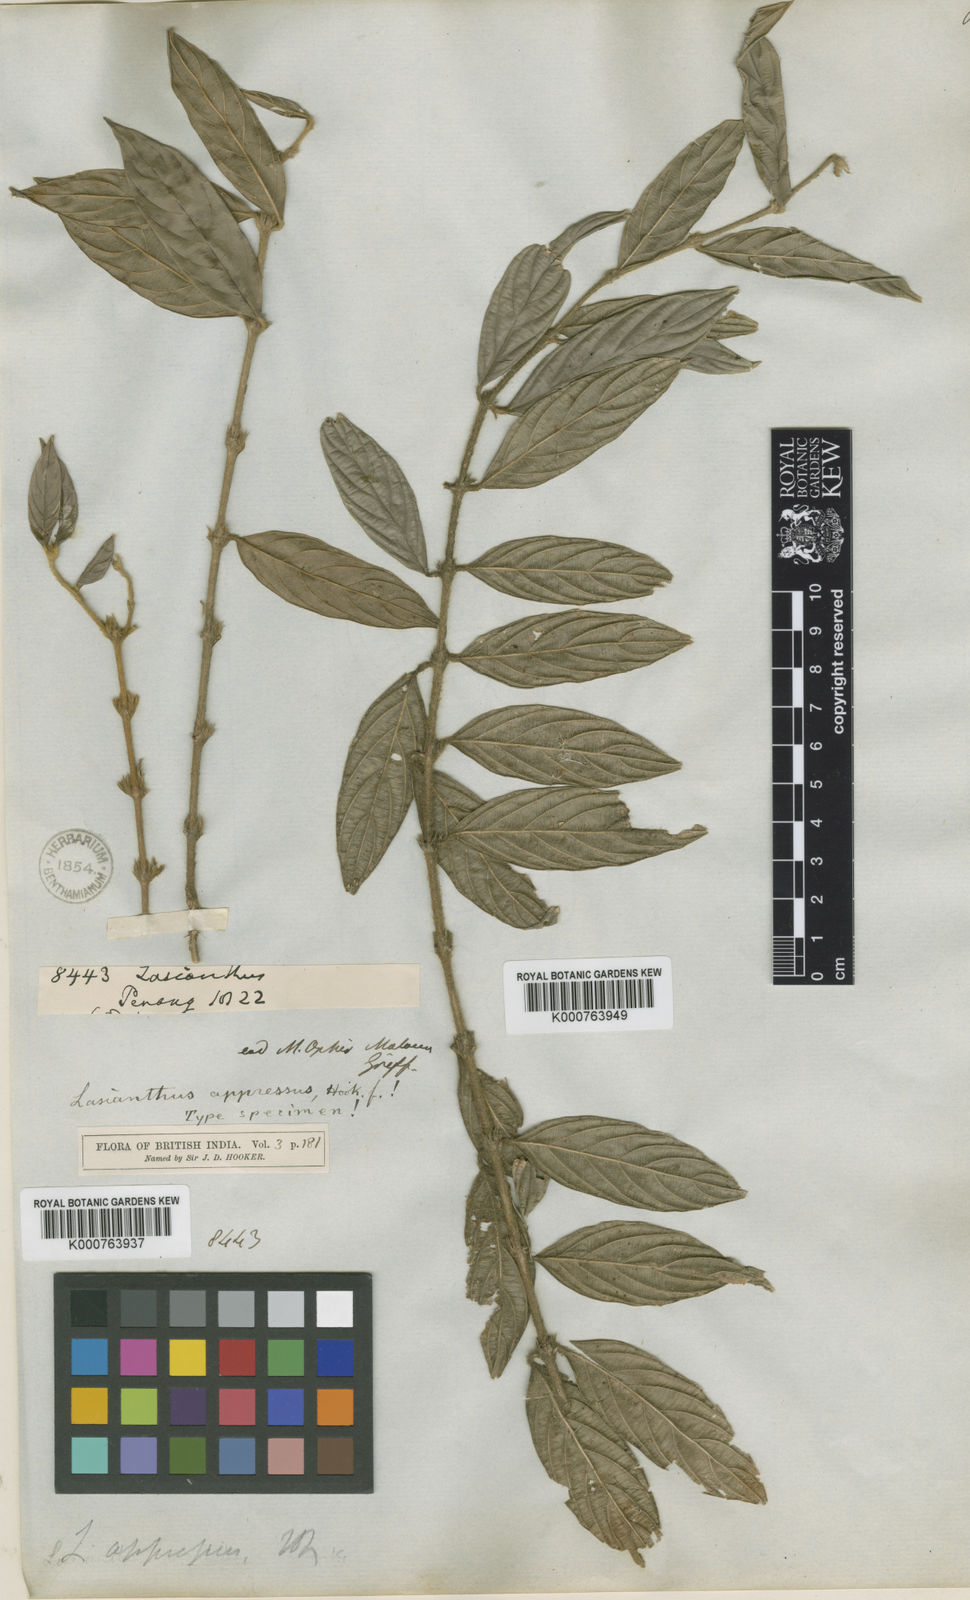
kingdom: Plantae
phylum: Tracheophyta
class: Magnoliopsida
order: Gentianales
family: Rubiaceae
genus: Lasianthus
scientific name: Lasianthus appressus
